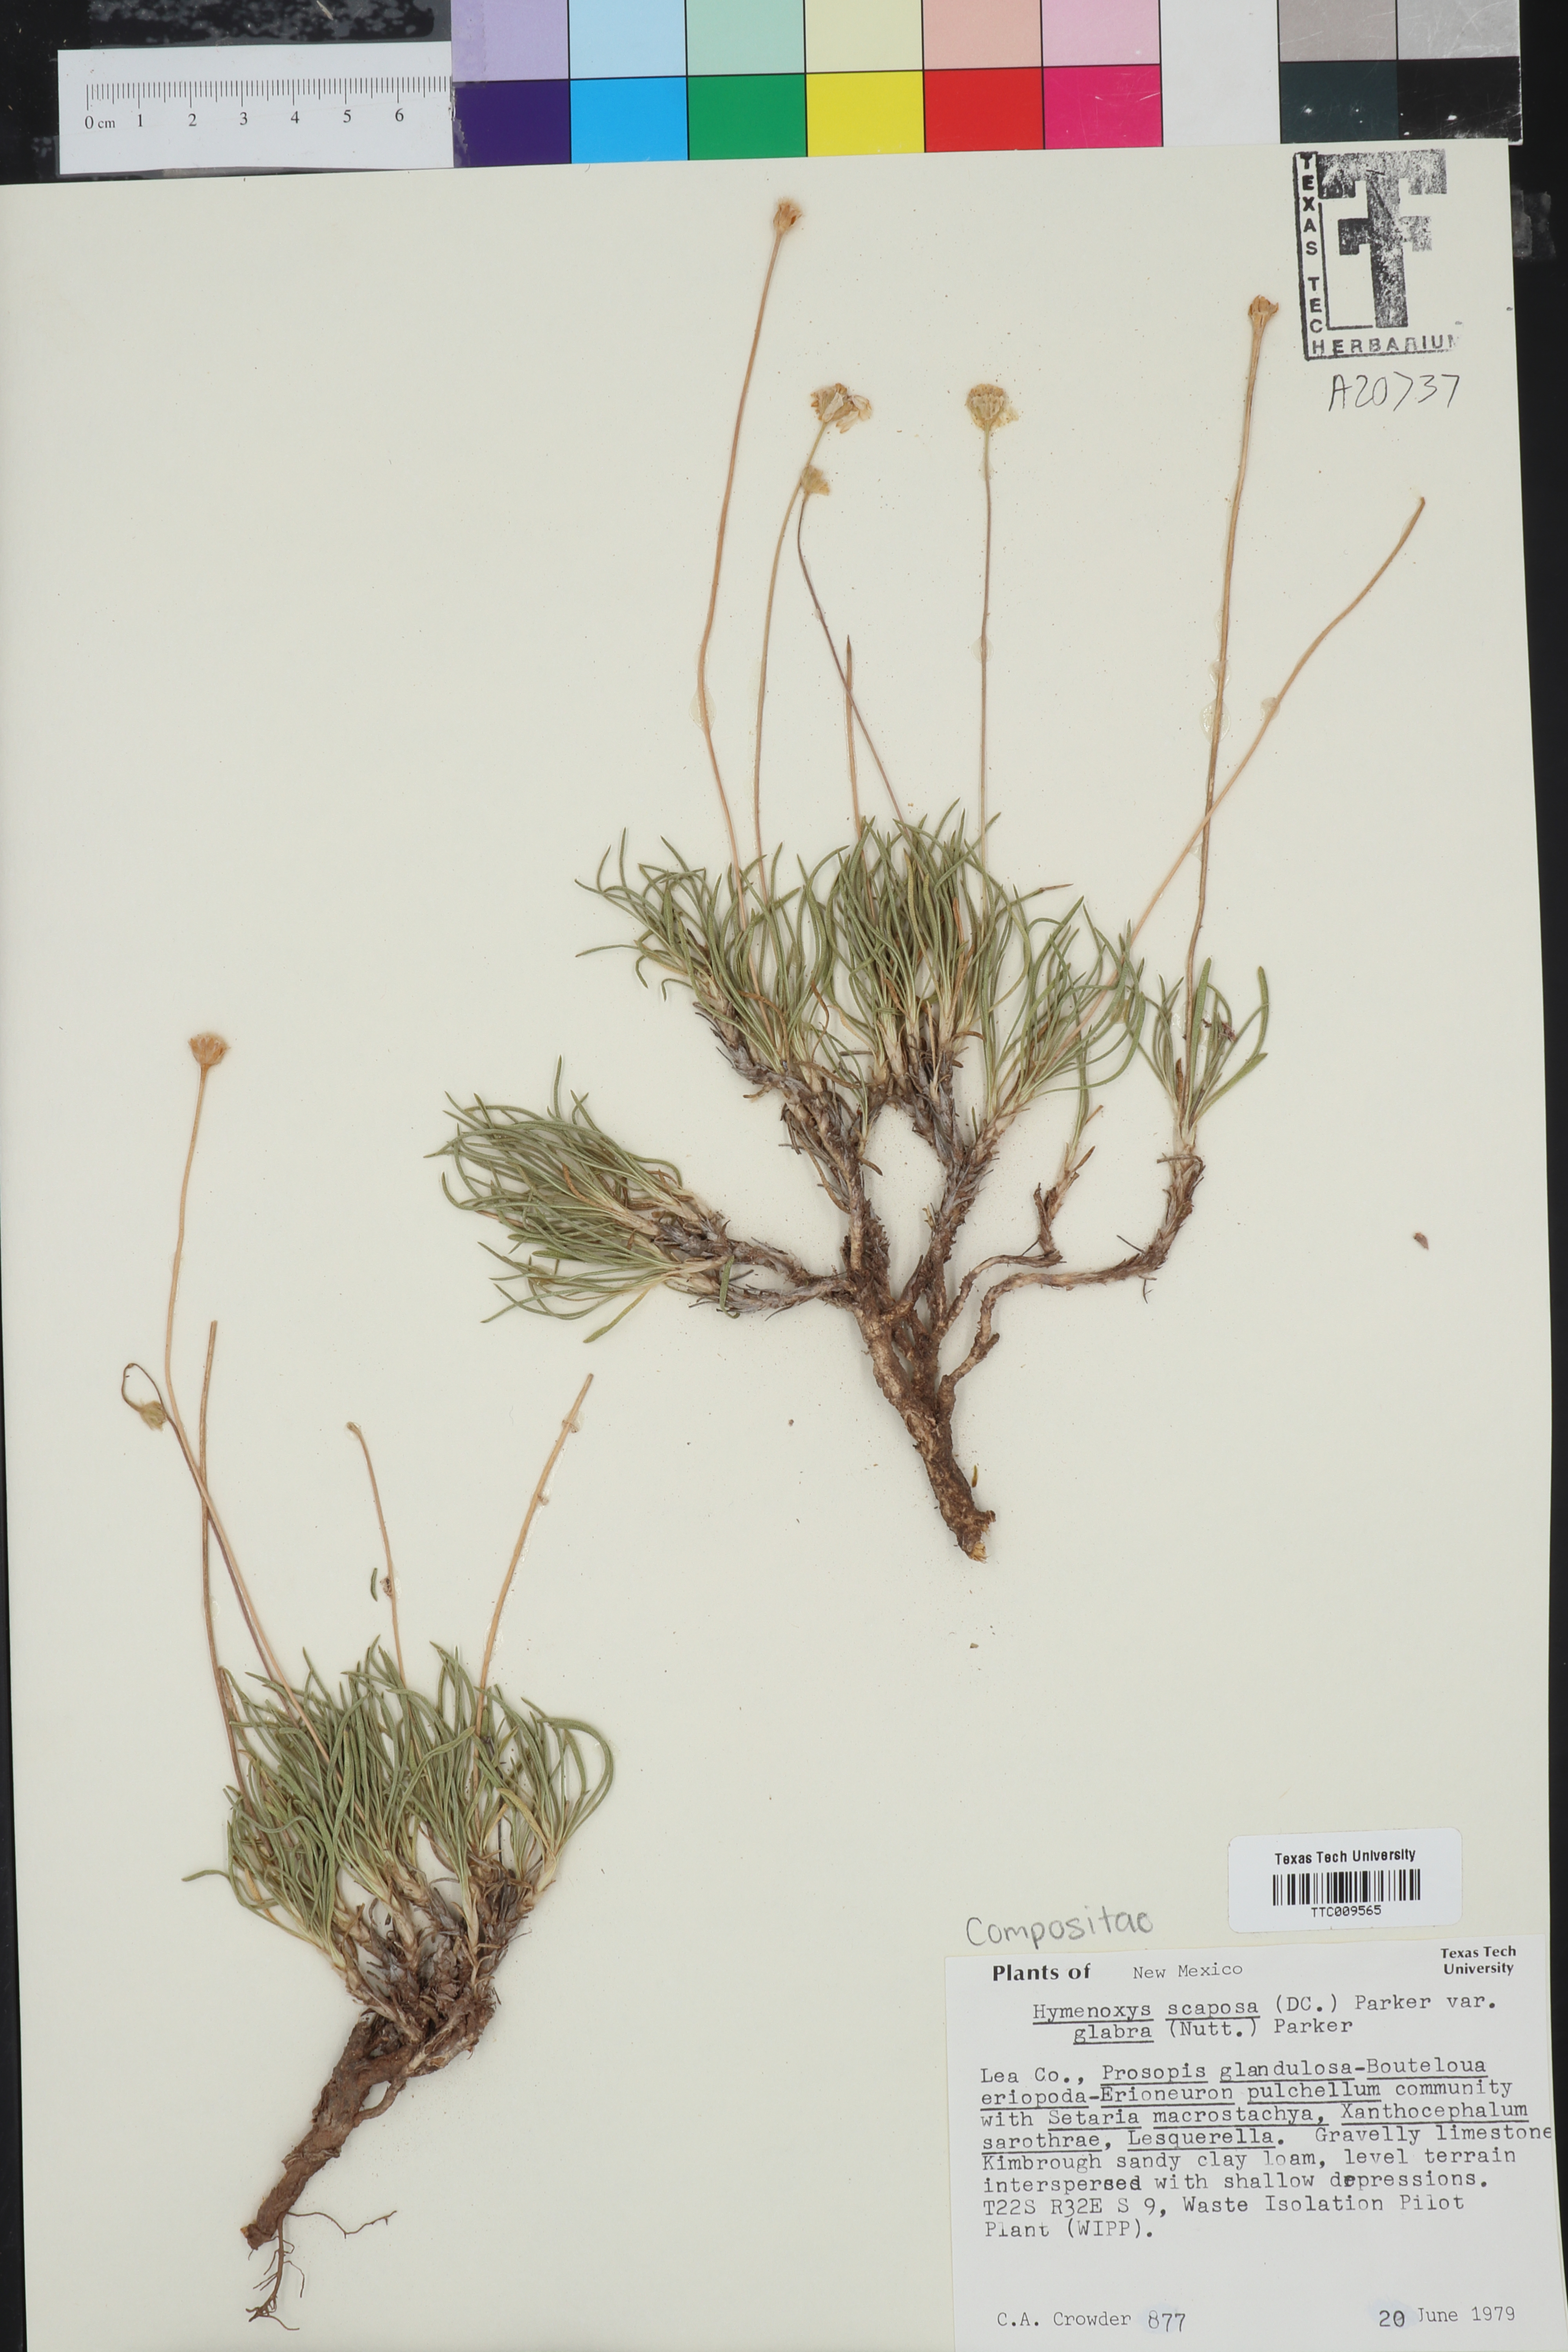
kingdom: Plantae
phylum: Tracheophyta
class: Magnoliopsida
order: Asterales
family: Asteraceae
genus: Tetraneuris
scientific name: Tetraneuris scaposa
